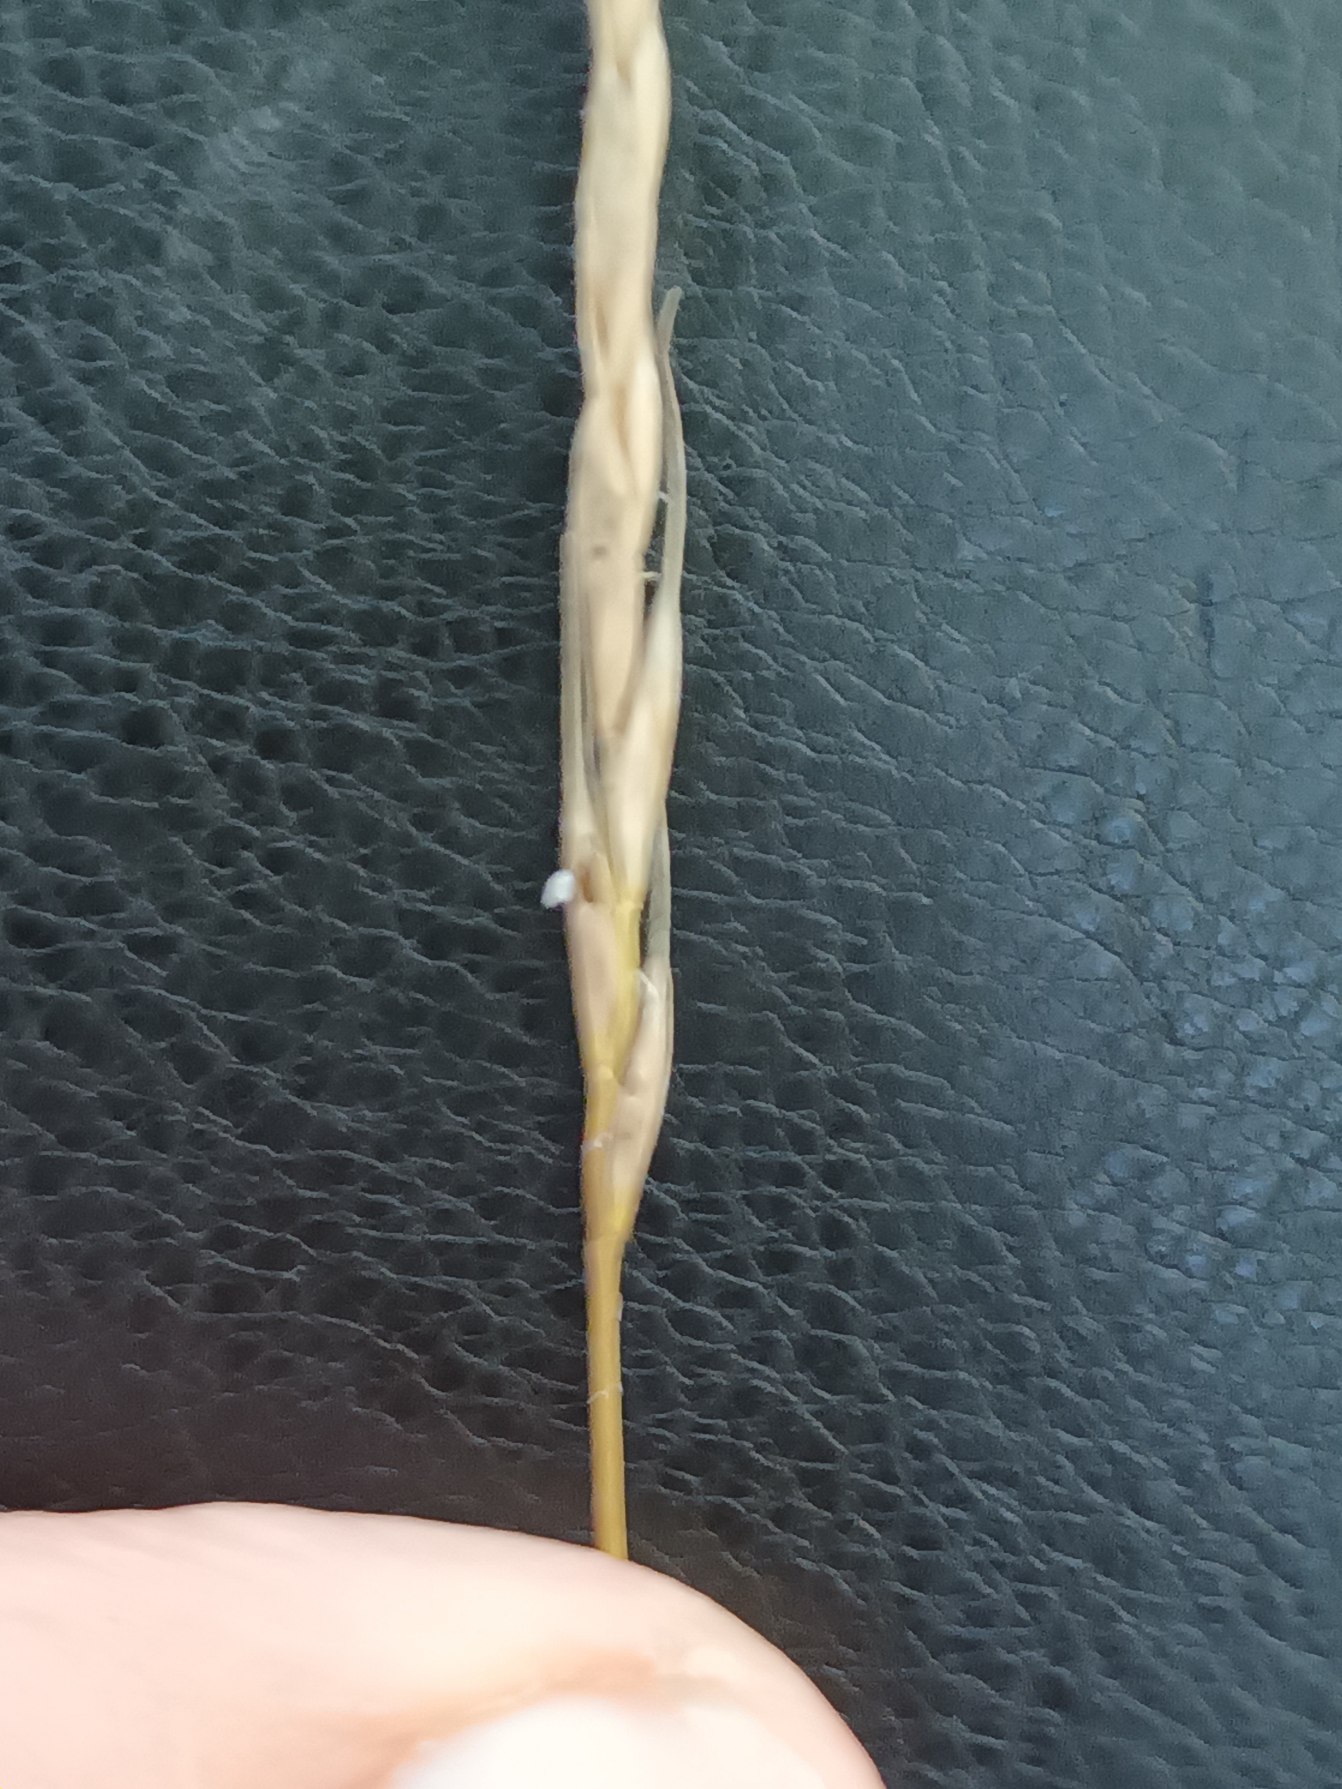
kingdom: Plantae
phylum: Tracheophyta
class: Liliopsida
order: Poales
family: Poaceae
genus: Elymus
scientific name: Elymus caninus
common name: Hundekvik
